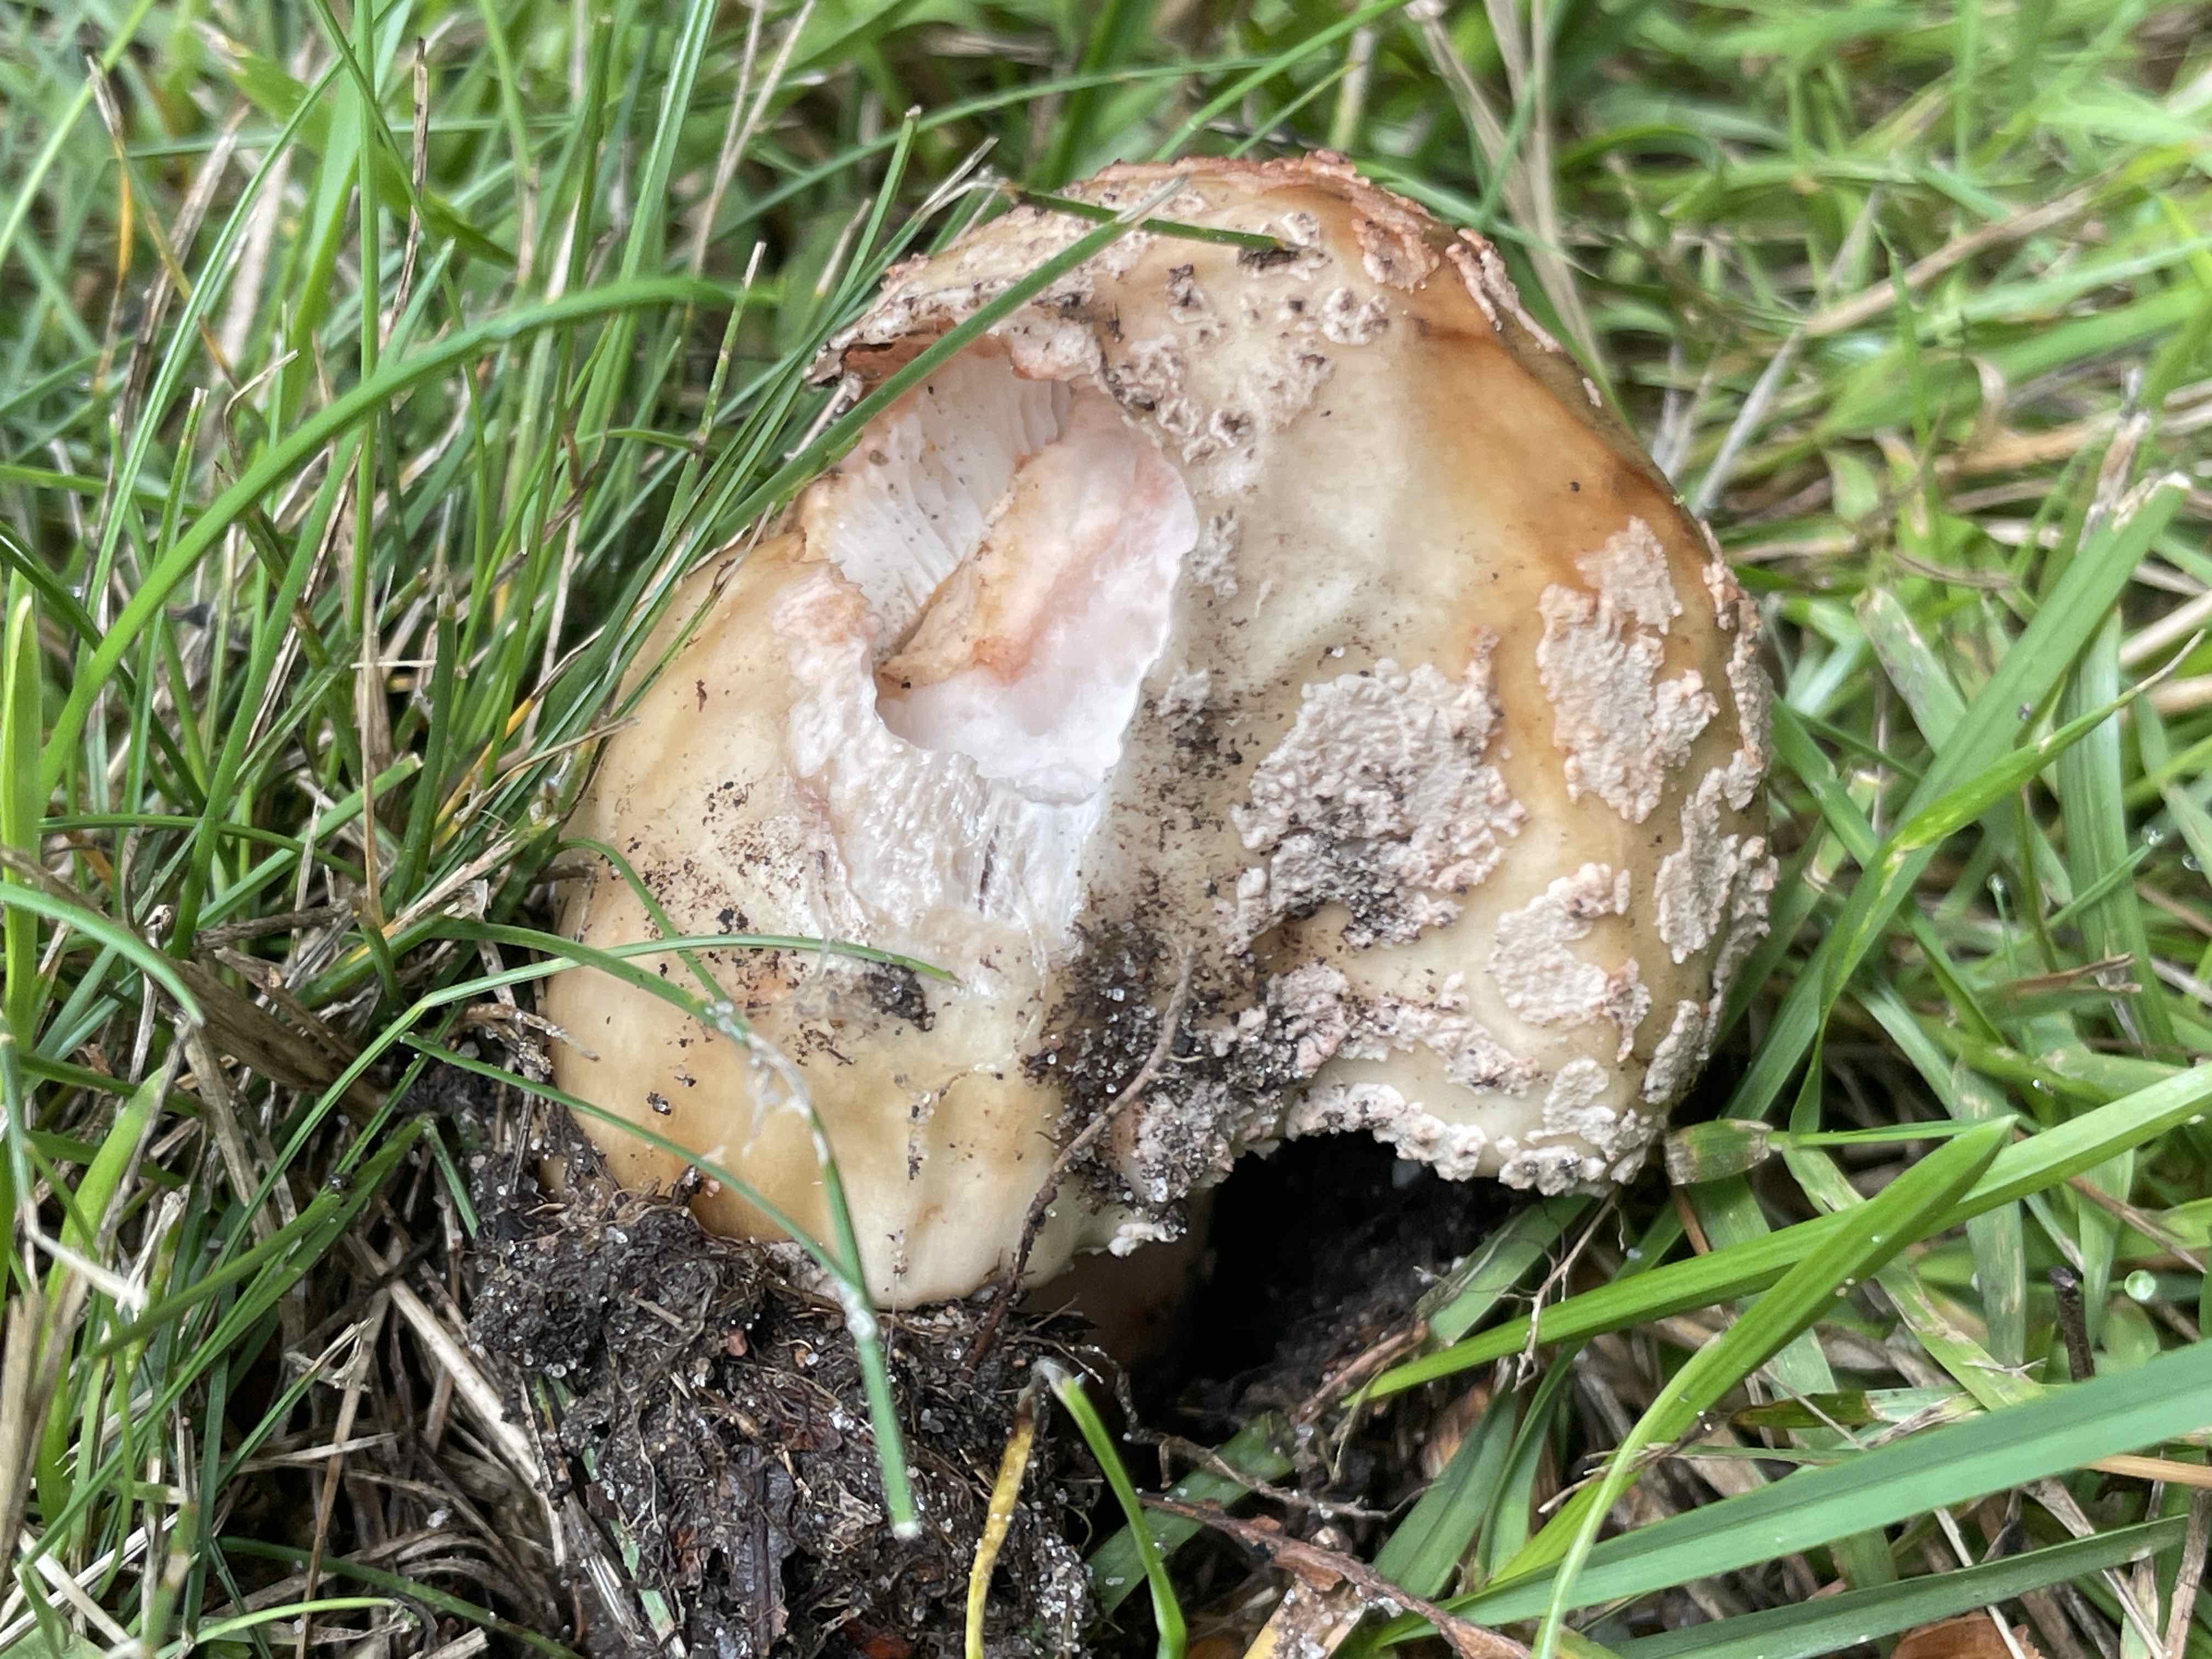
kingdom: Fungi
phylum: Basidiomycota
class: Agaricomycetes
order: Agaricales
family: Amanitaceae
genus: Amanita
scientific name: Amanita rubescens
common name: rødmende fluesvamp
